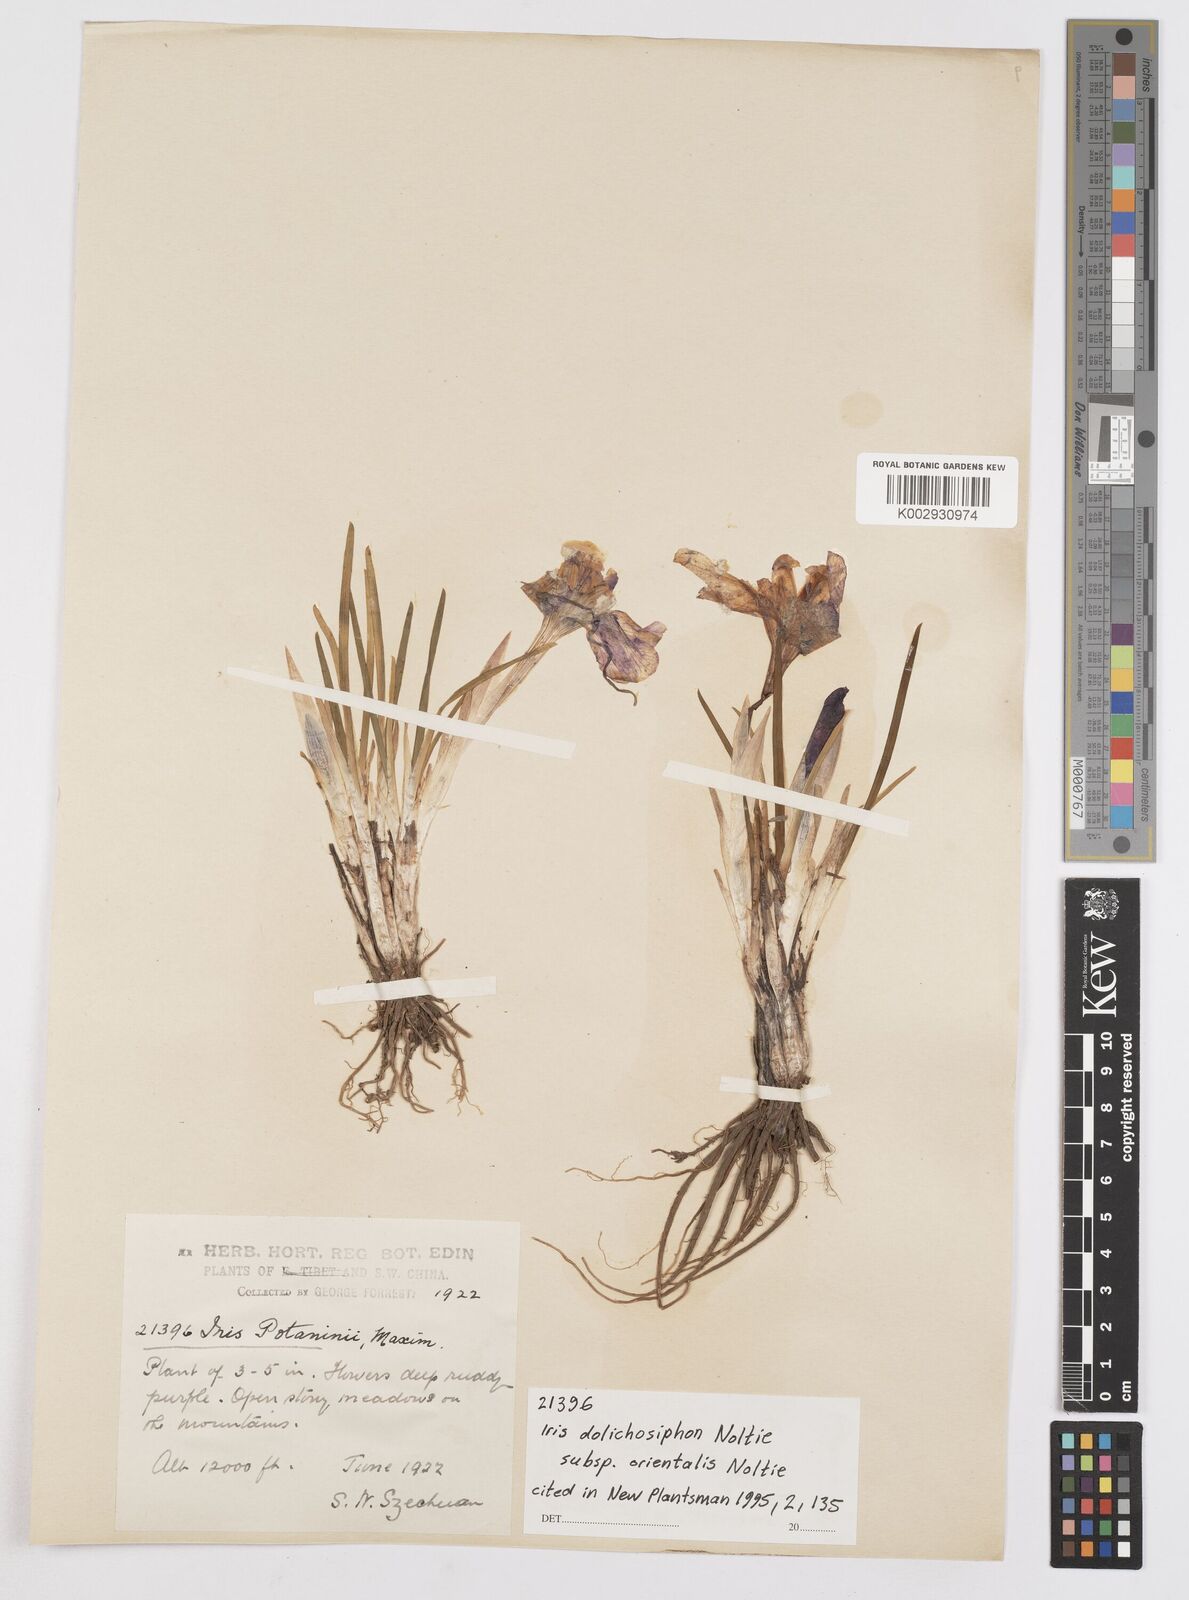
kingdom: Plantae
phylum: Tracheophyta
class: Liliopsida
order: Asparagales
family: Iridaceae
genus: Iris
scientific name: Iris dolichosiphon
